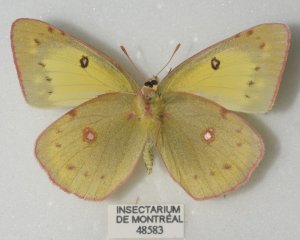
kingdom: Animalia
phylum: Arthropoda
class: Insecta
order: Lepidoptera
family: Pieridae
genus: Colias
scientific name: Colias philodice
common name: Clouded Sulphur
